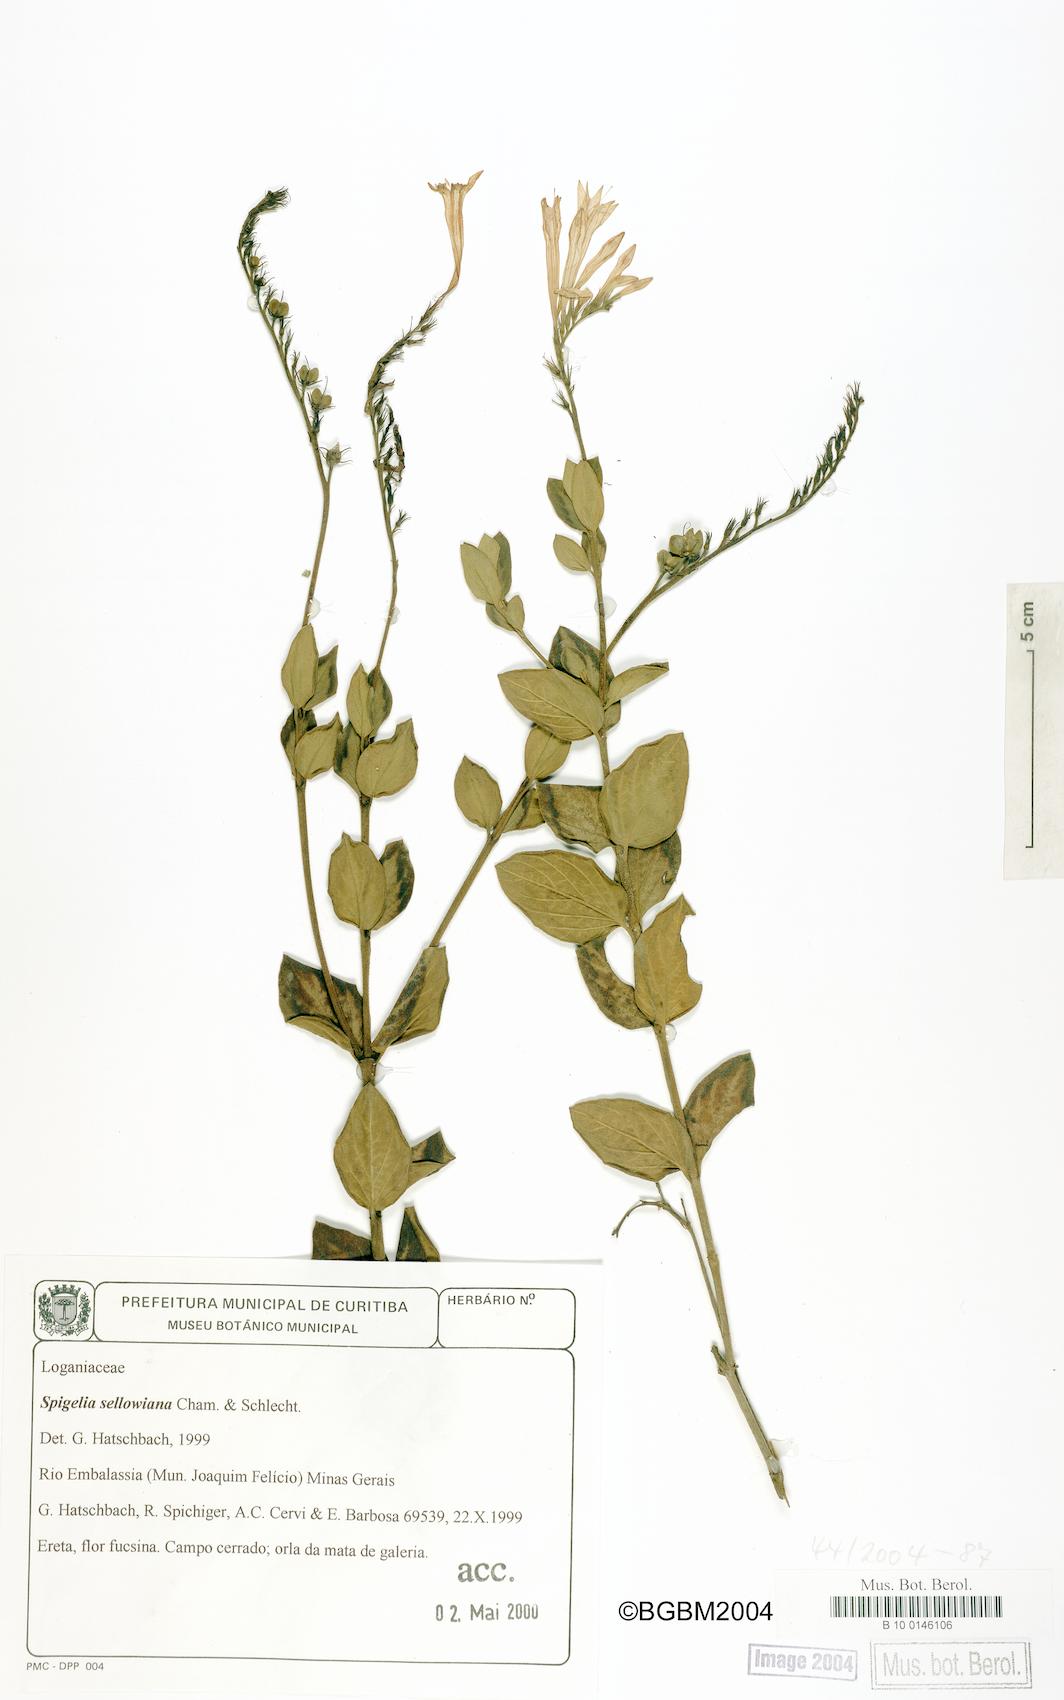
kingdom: Plantae
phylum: Tracheophyta
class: Magnoliopsida
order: Gentianales
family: Loganiaceae
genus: Spigelia
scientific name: Spigelia sellowiana
